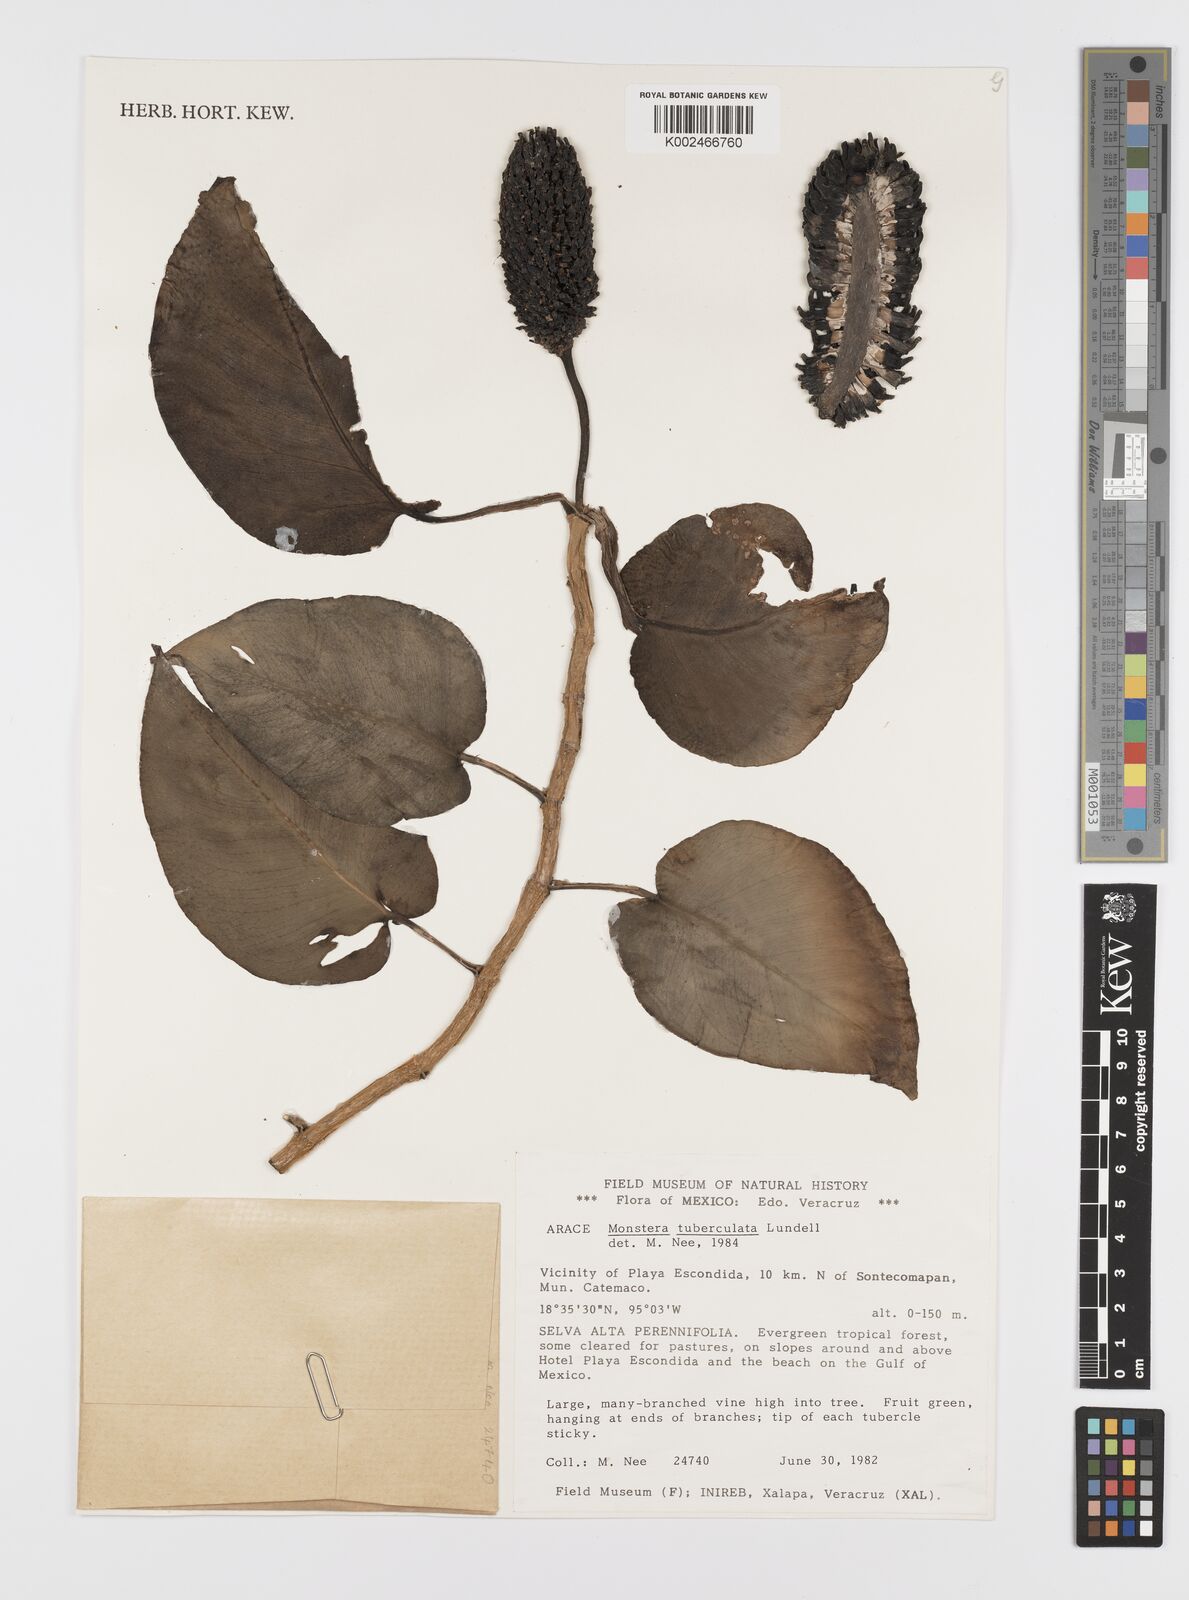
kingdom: Plantae
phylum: Tracheophyta
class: Liliopsida
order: Alismatales
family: Araceae
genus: Monstera
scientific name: Monstera tuberculata
